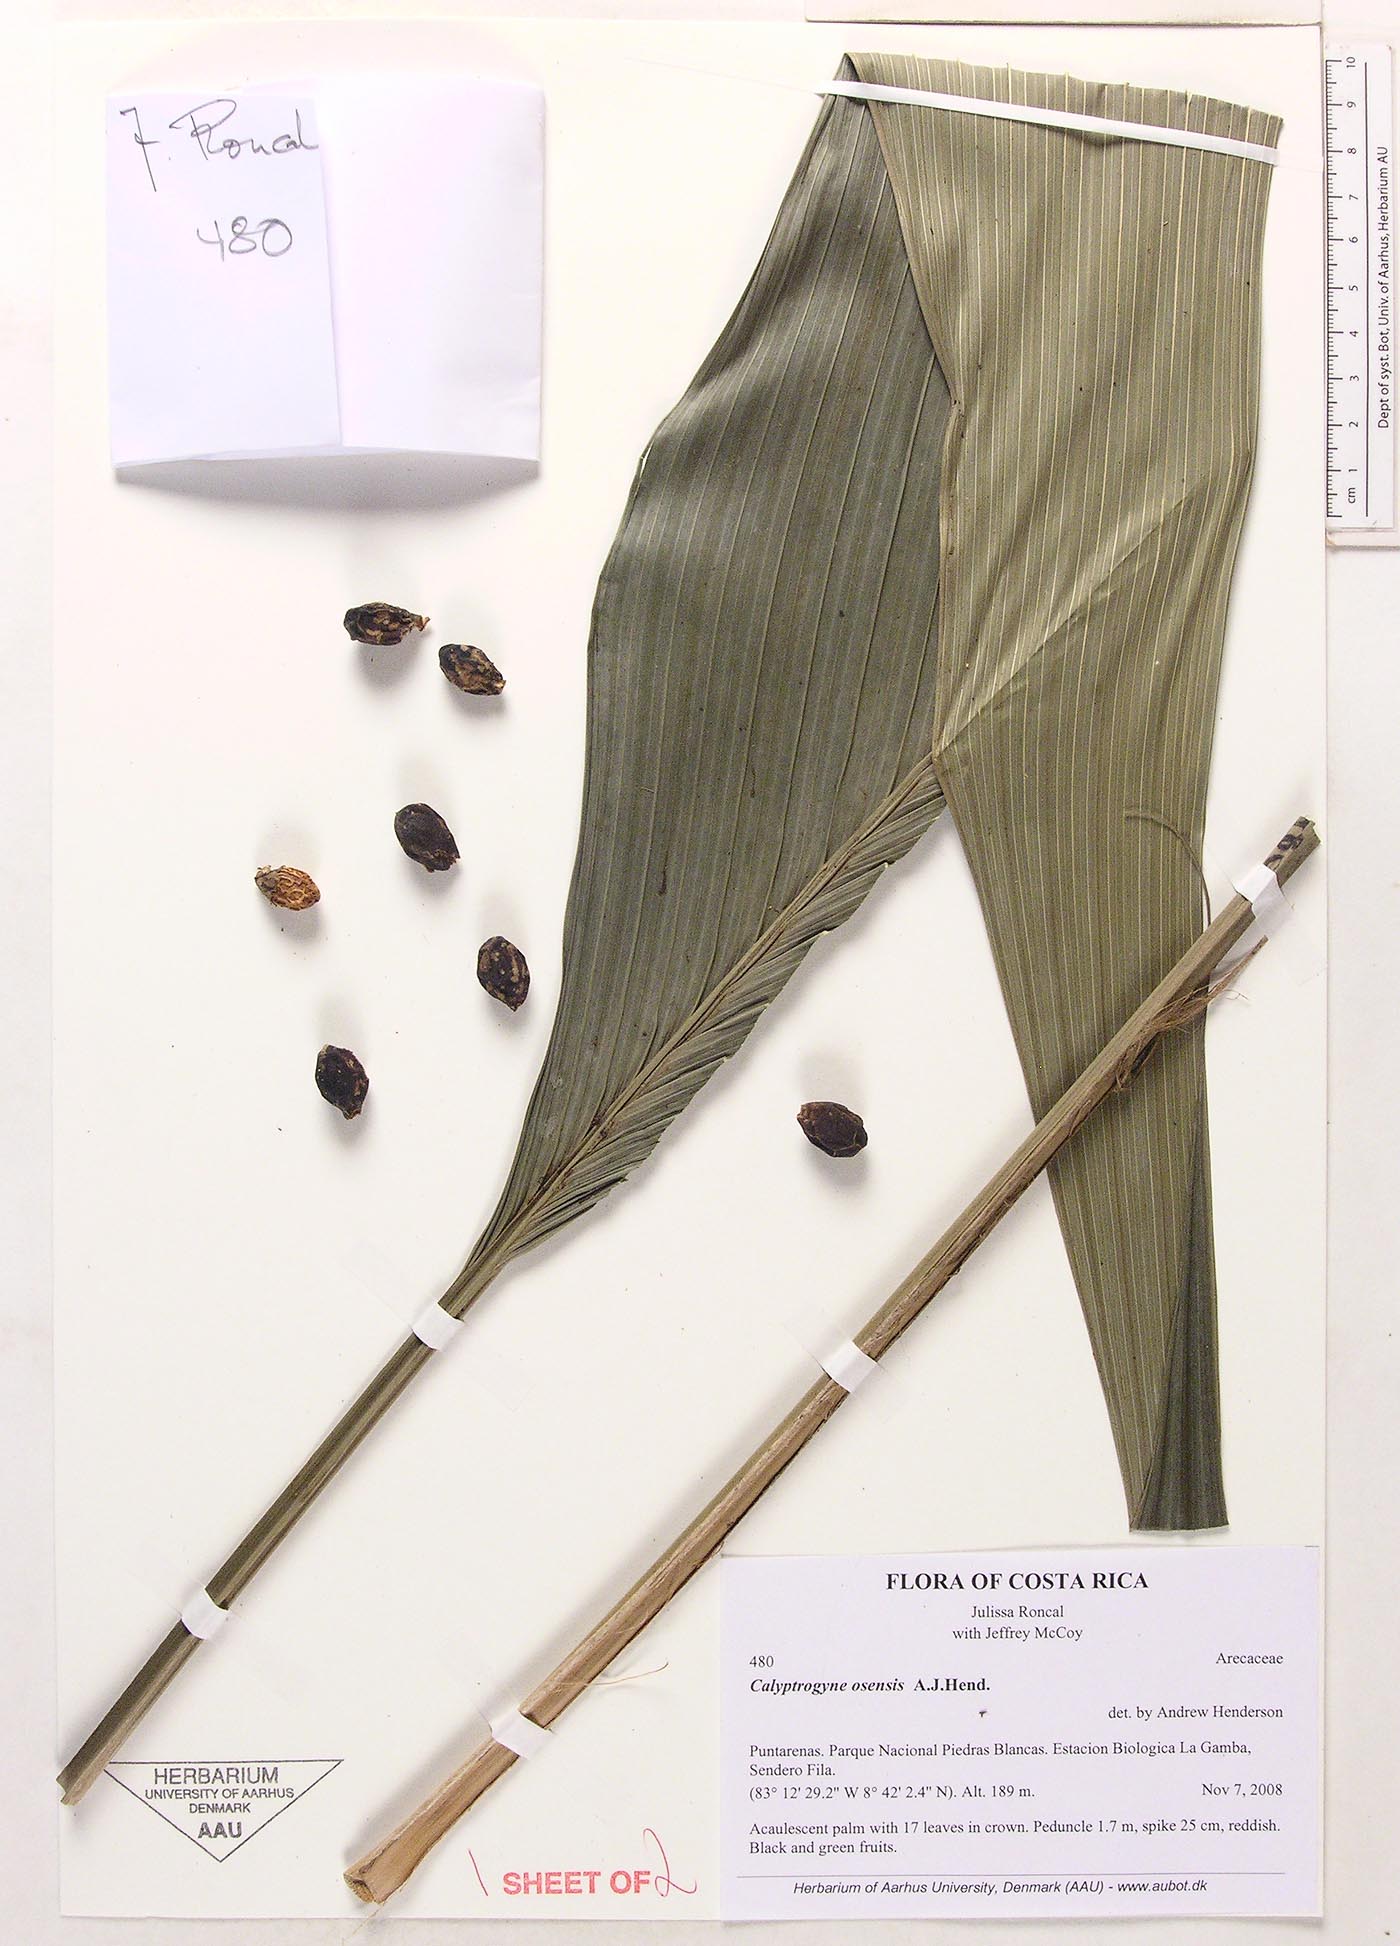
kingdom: Plantae
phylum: Tracheophyta
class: Liliopsida
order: Arecales
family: Arecaceae
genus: Calyptrogyne
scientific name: Calyptrogyne osensis
